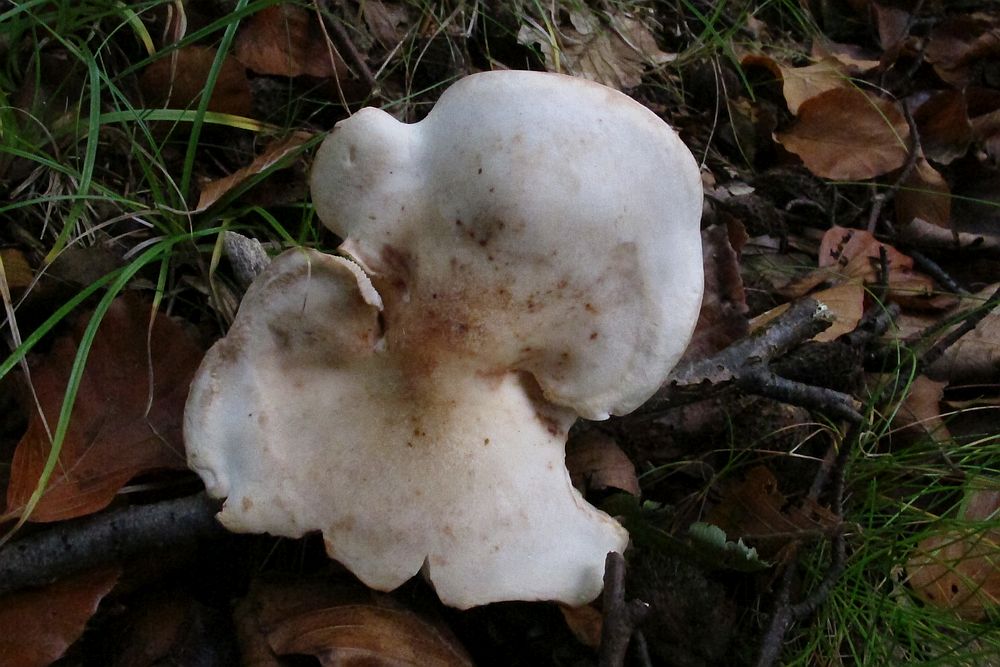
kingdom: Fungi
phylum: Basidiomycota
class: Agaricomycetes
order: Agaricales
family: Omphalotaceae
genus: Rhodocollybia
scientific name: Rhodocollybia maculata
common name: plettet fladhat
